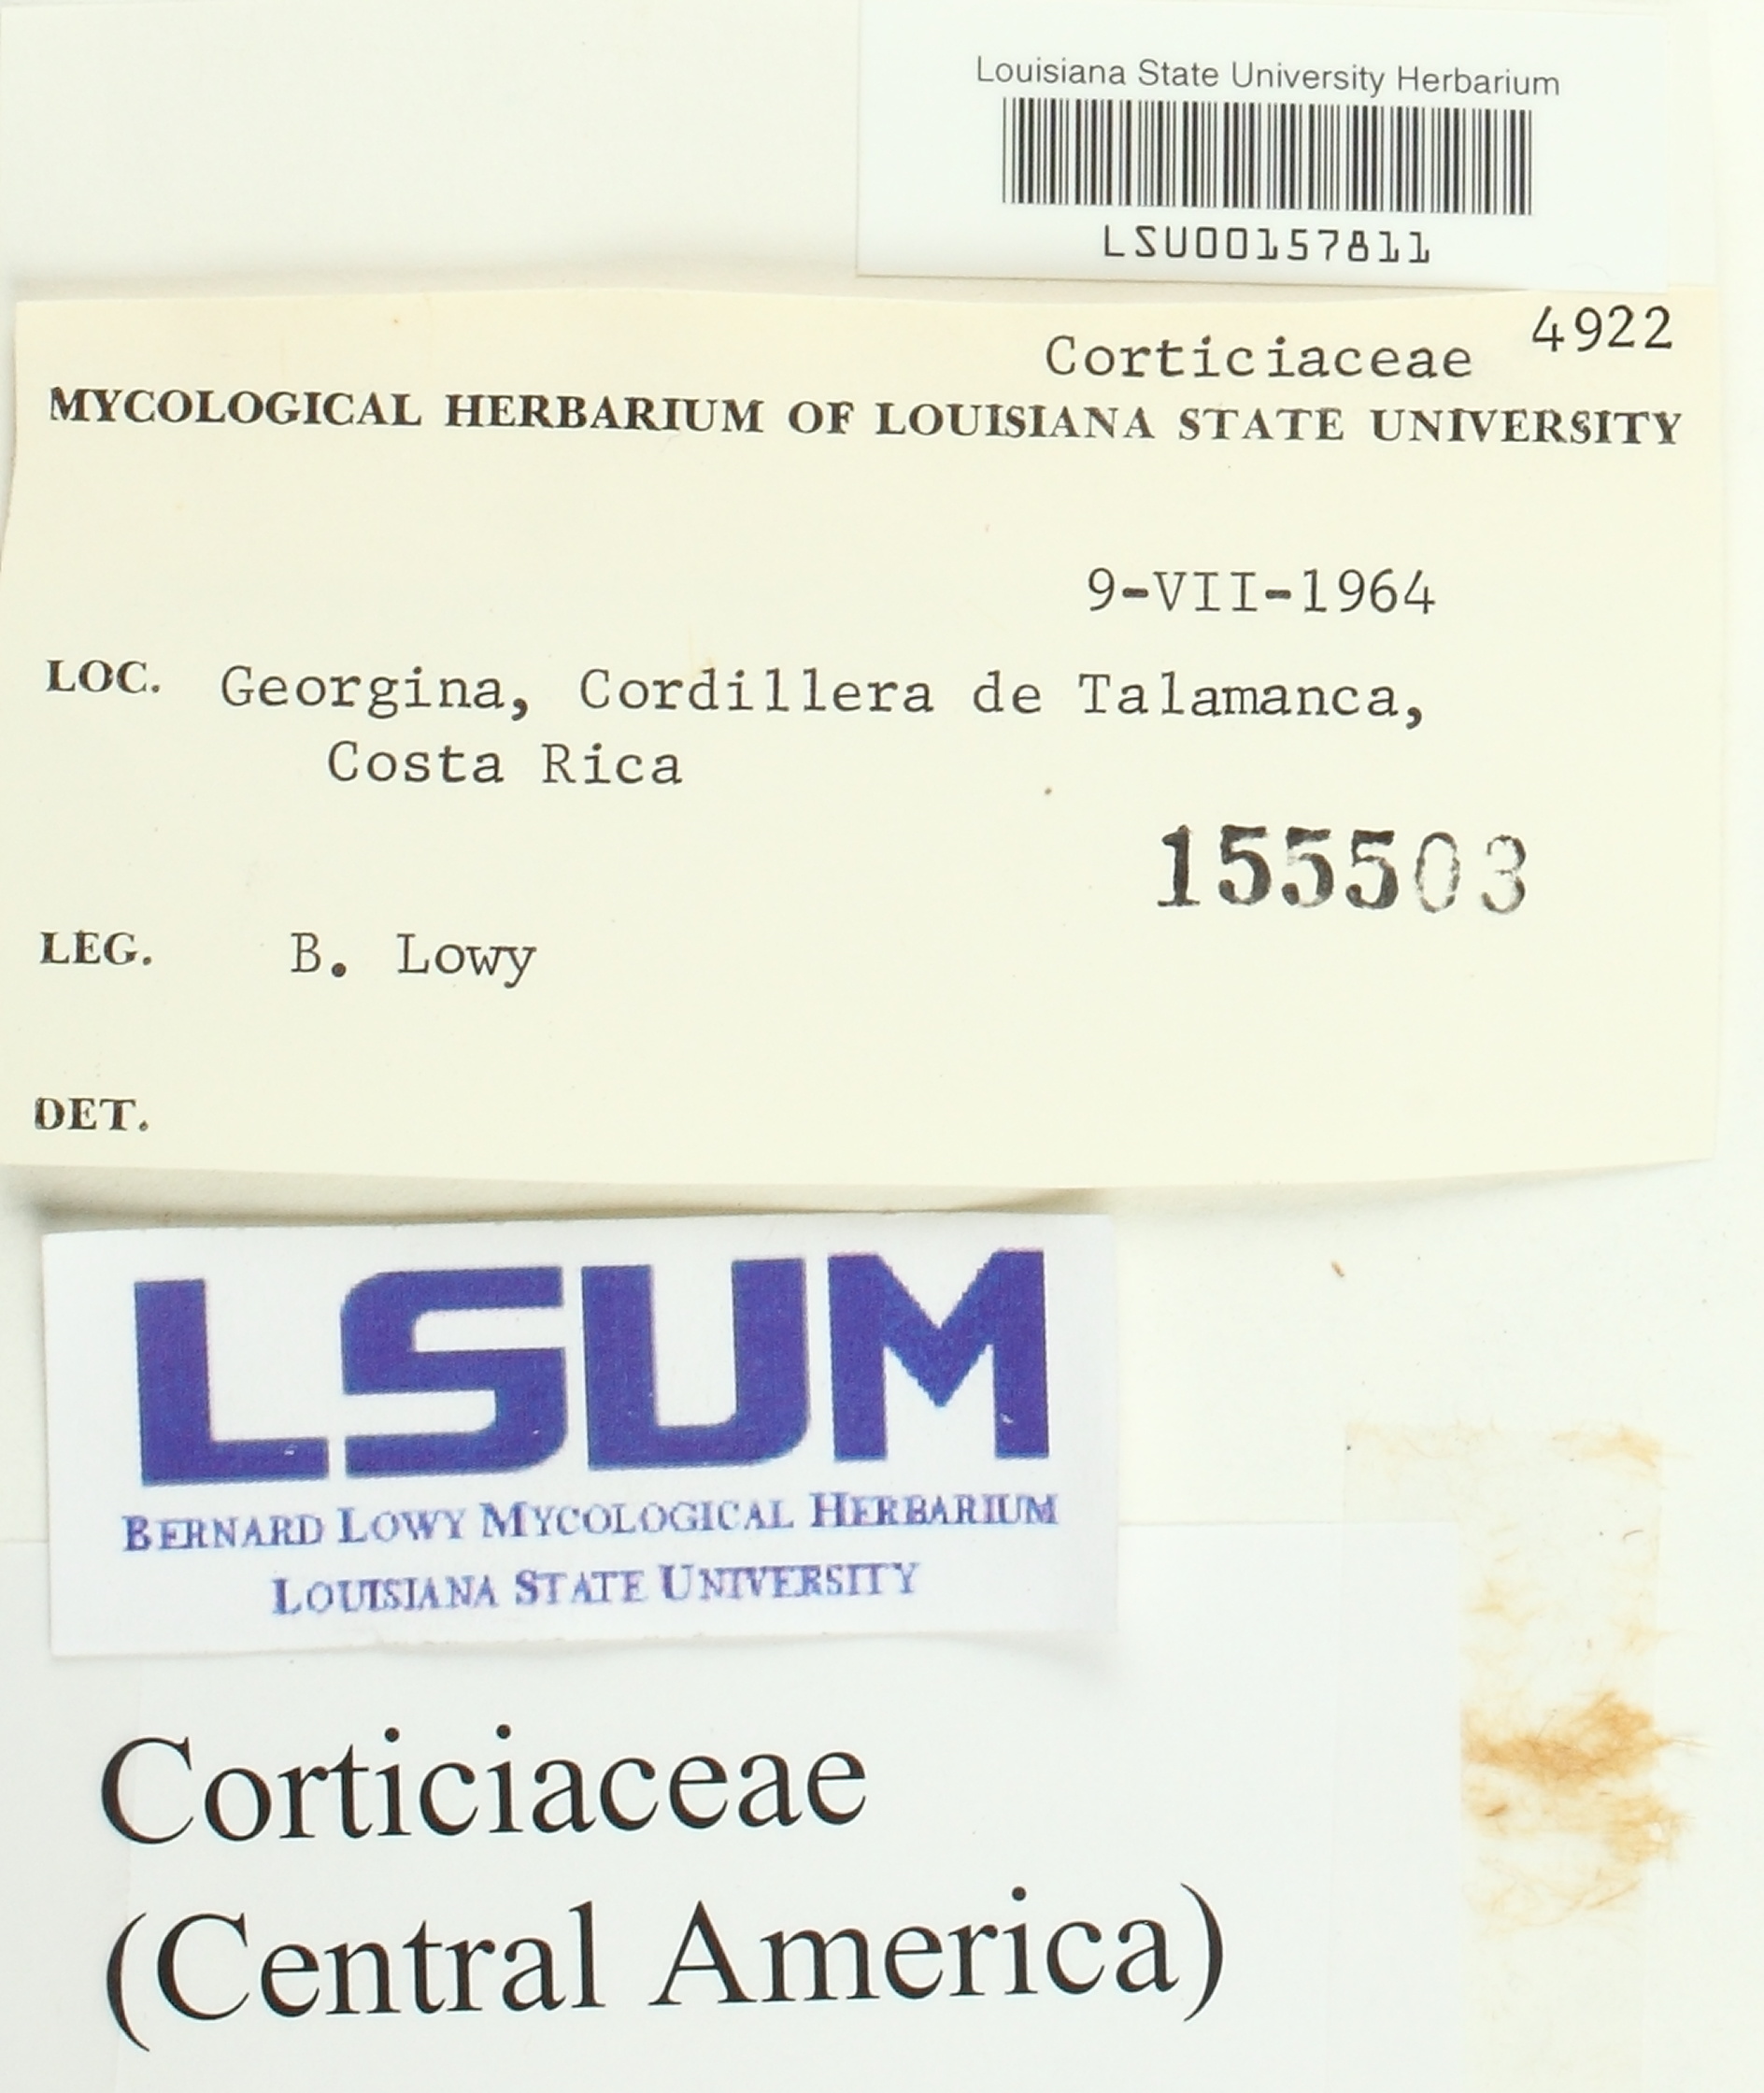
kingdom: Fungi
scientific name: Fungi
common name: Fungi
